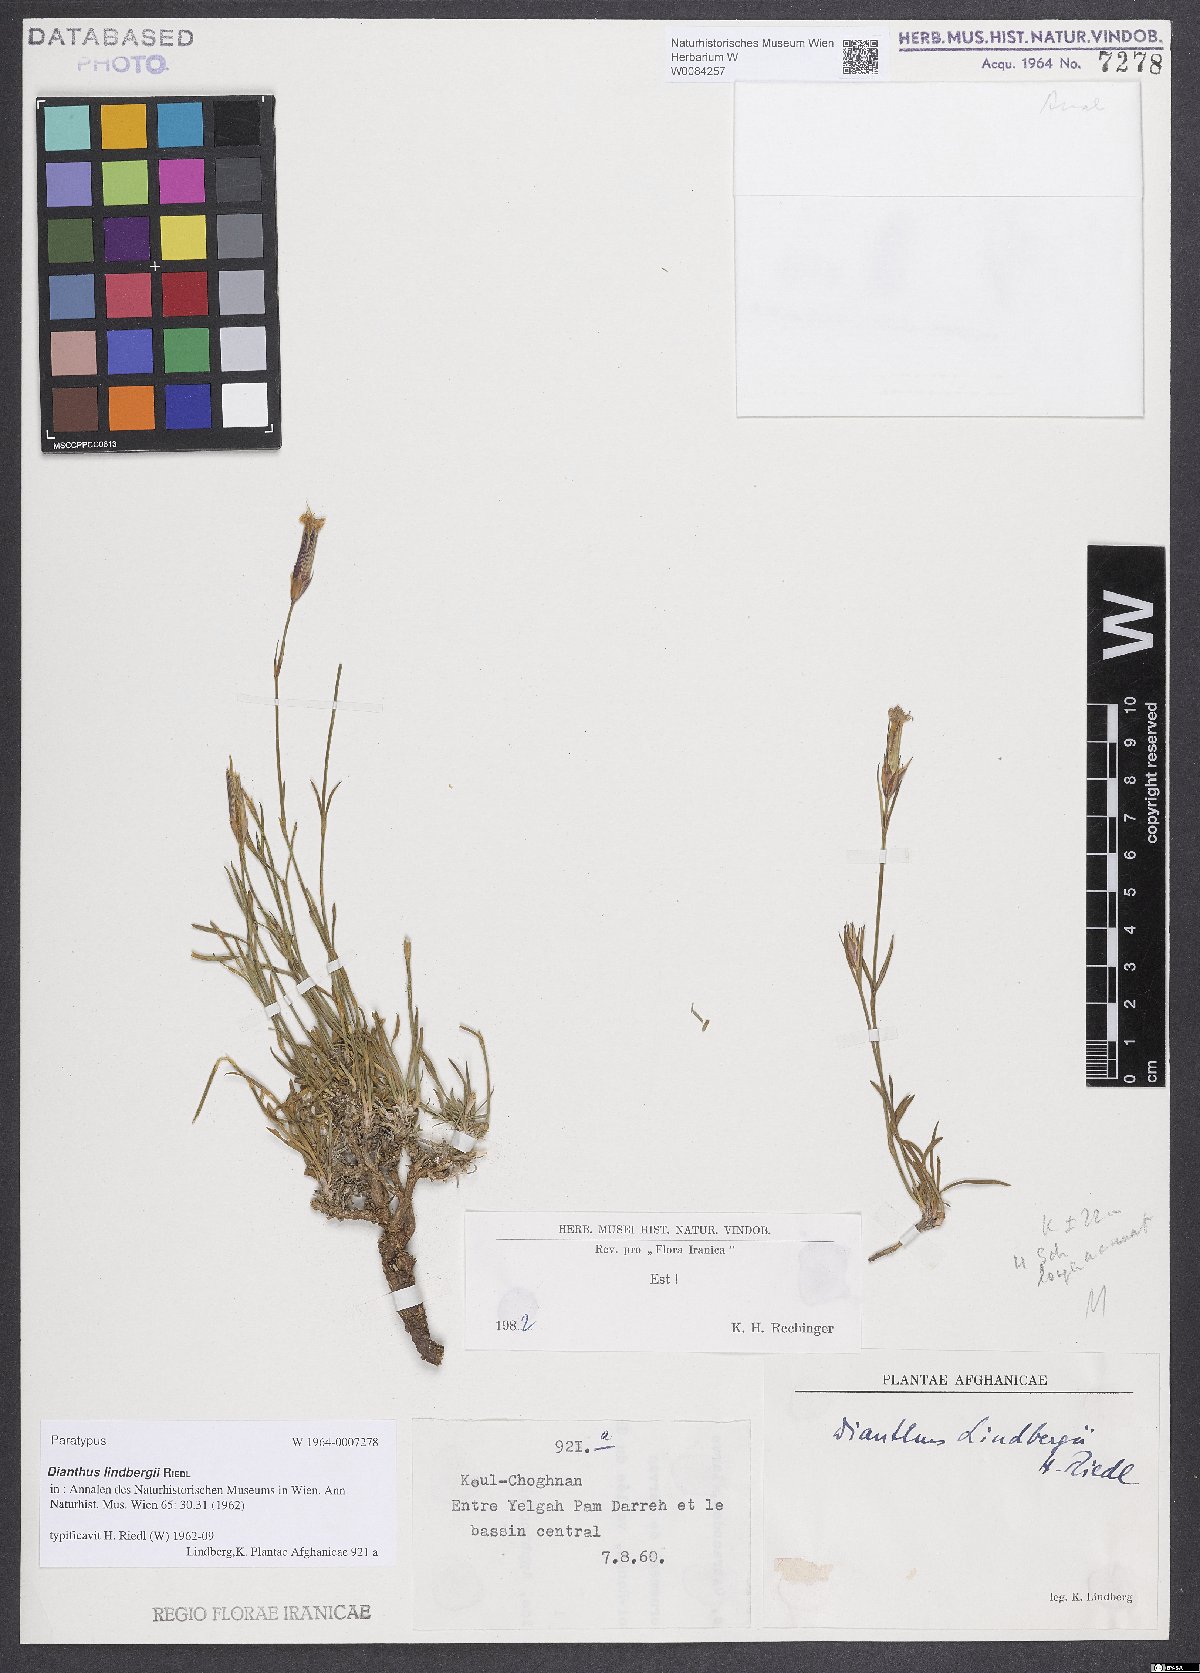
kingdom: Plantae
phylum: Tracheophyta
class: Magnoliopsida
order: Caryophyllales
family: Caryophyllaceae
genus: Dianthus
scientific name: Dianthus lindbergii
